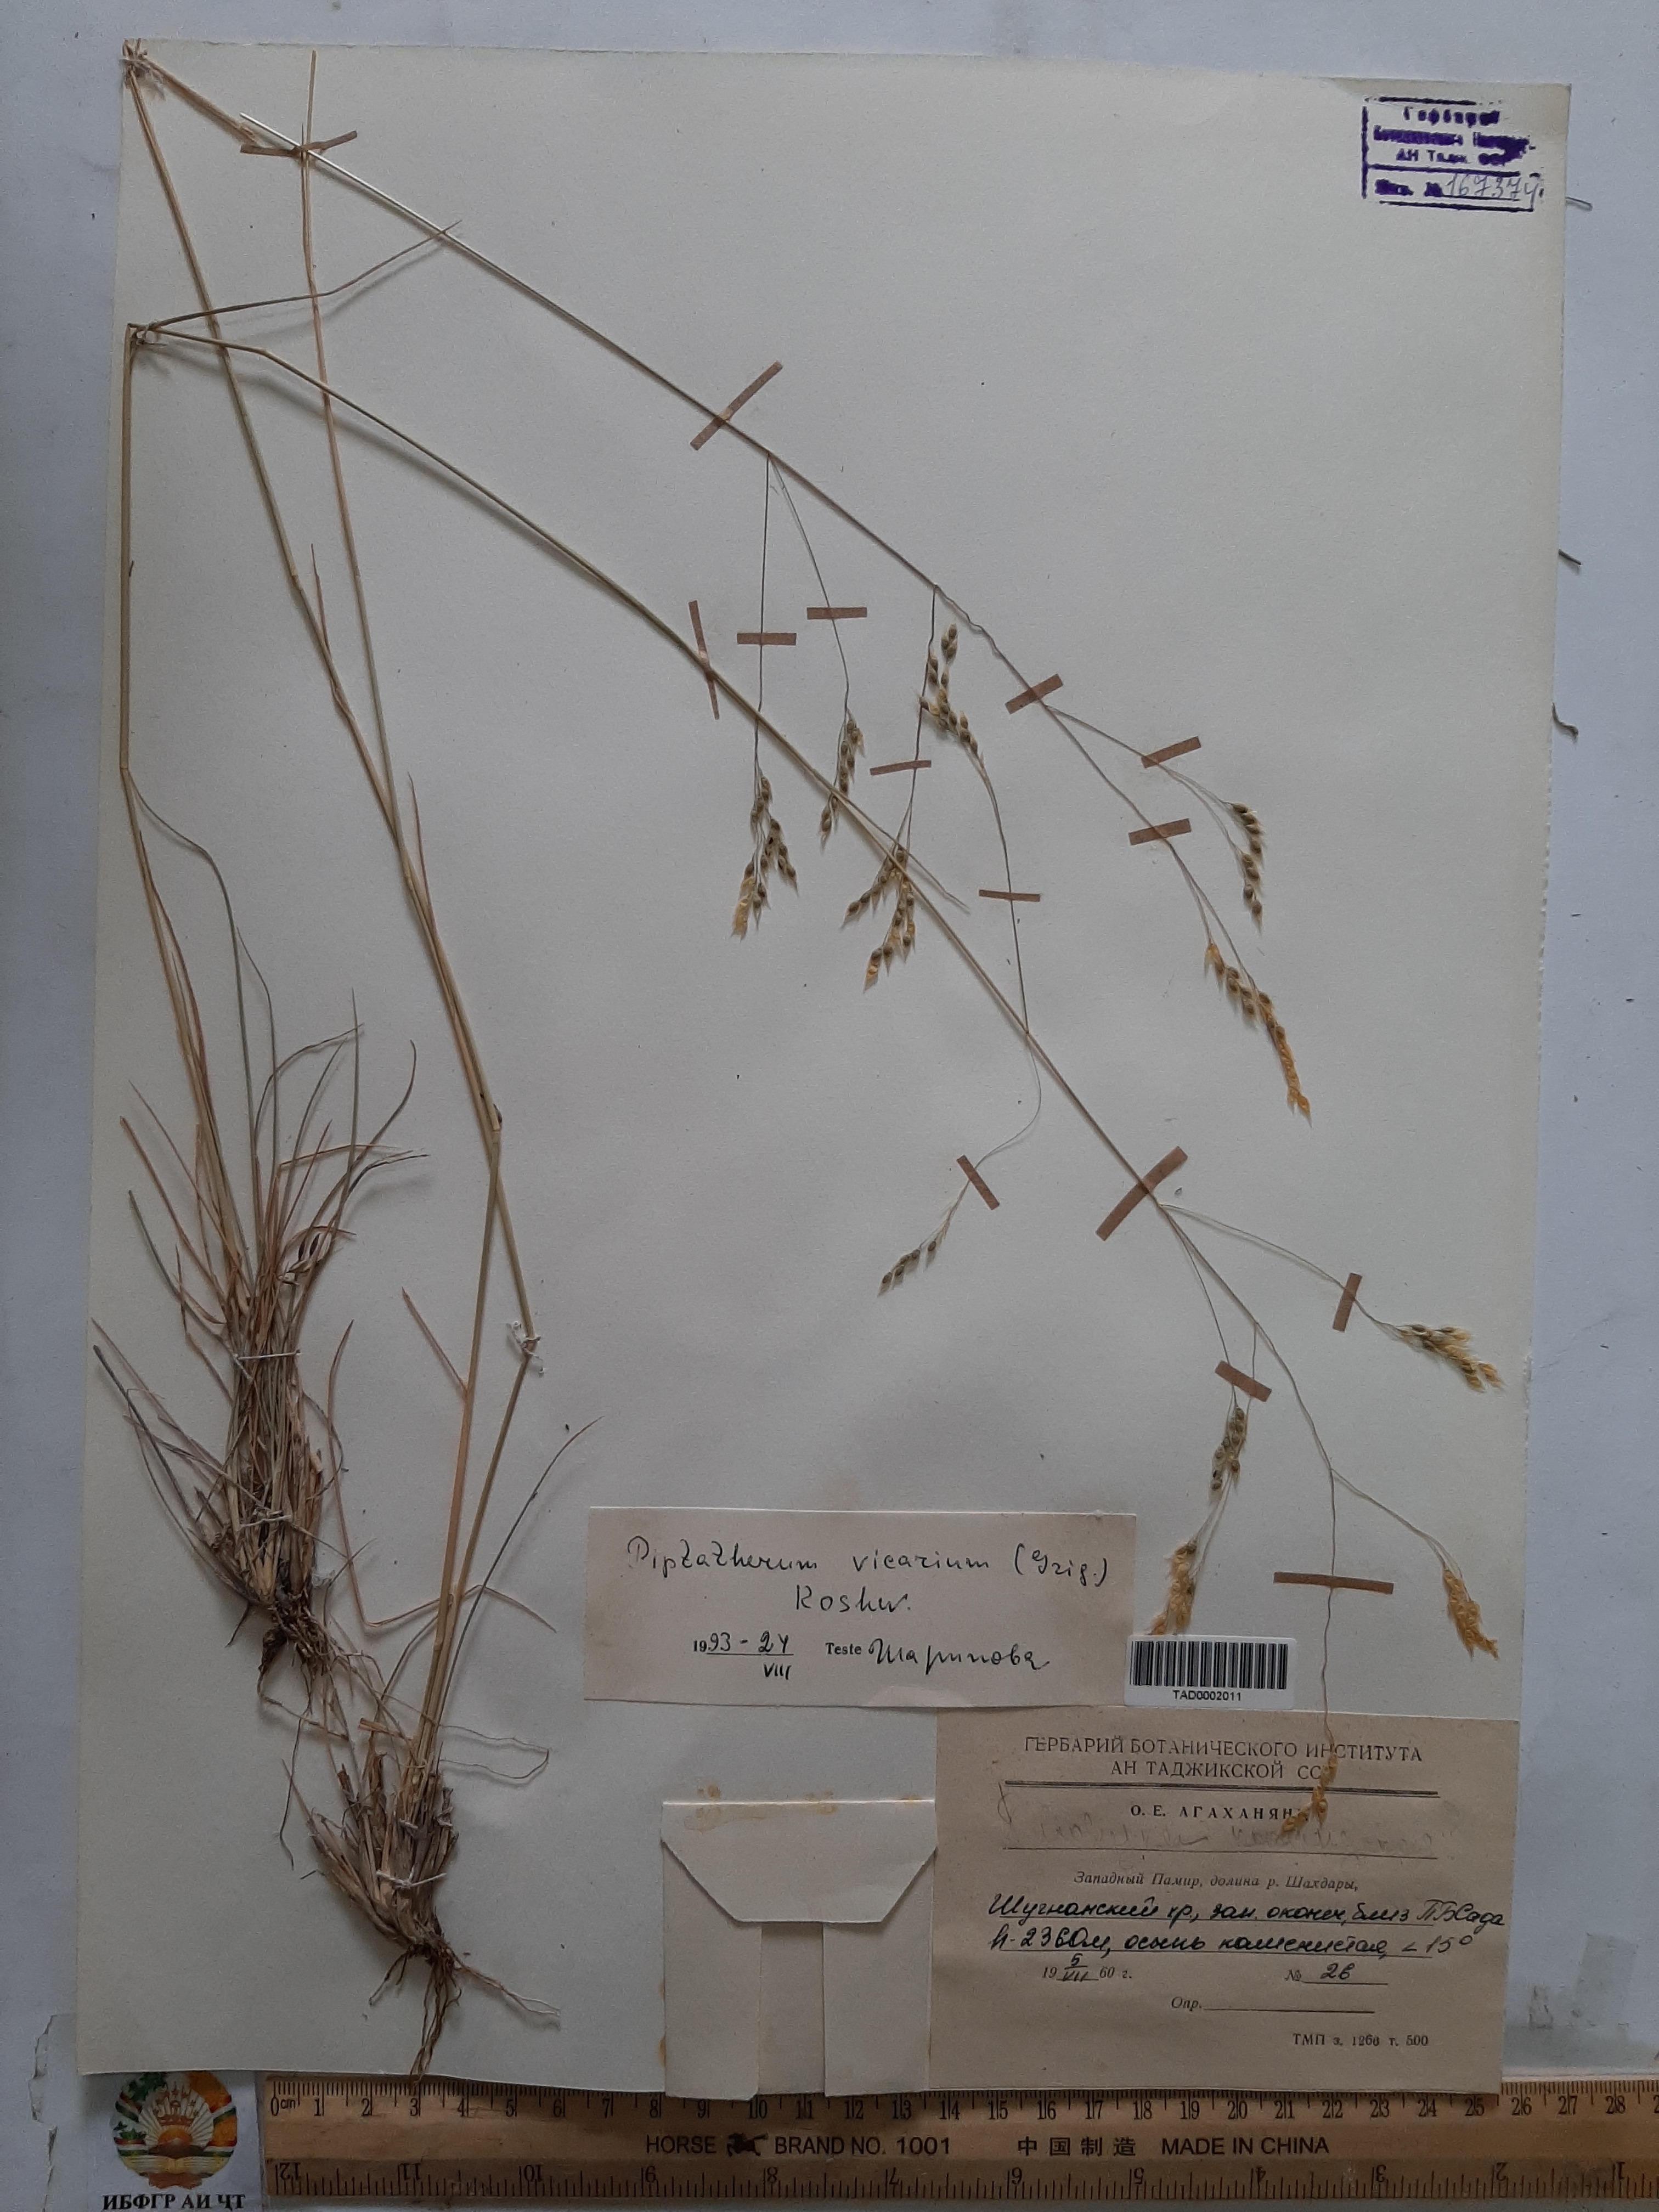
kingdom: Plantae
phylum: Tracheophyta
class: Liliopsida
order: Poales
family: Poaceae
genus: Piptatherum
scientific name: Piptatherum microcarpum
